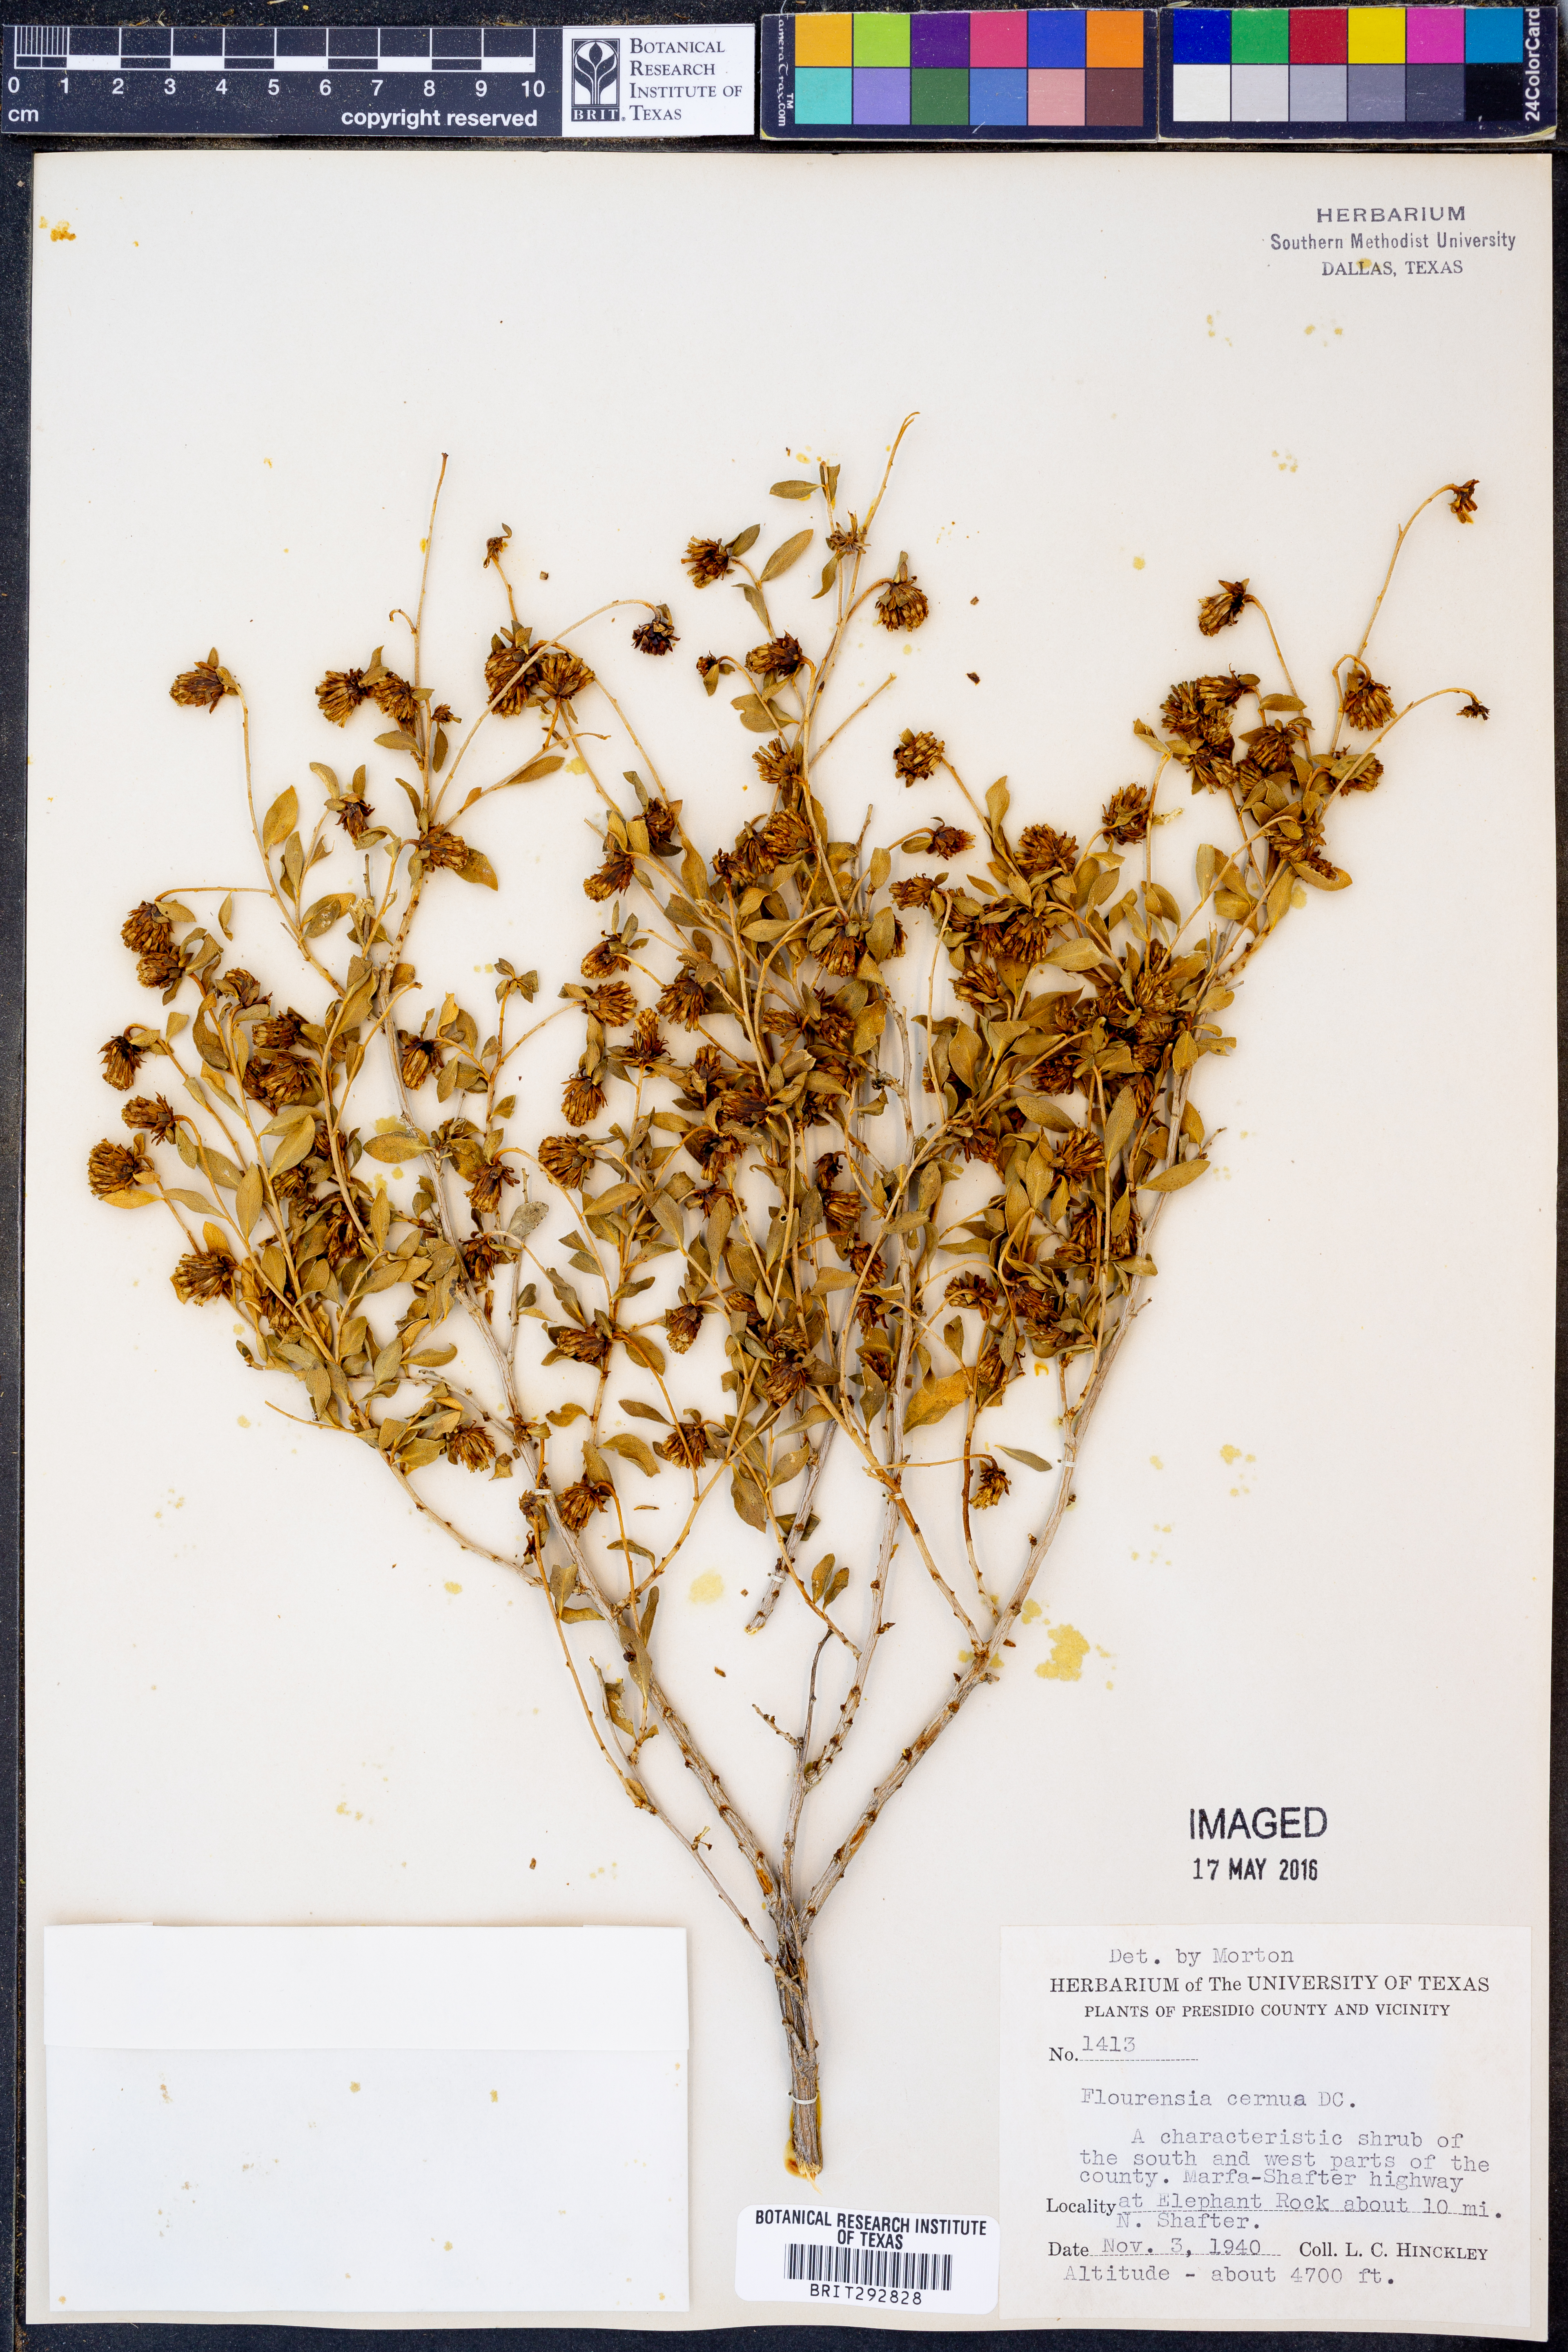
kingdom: Plantae
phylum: Tracheophyta
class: Magnoliopsida
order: Asterales
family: Asteraceae
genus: Flourensia
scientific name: Flourensia cernua
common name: Varnishbush
